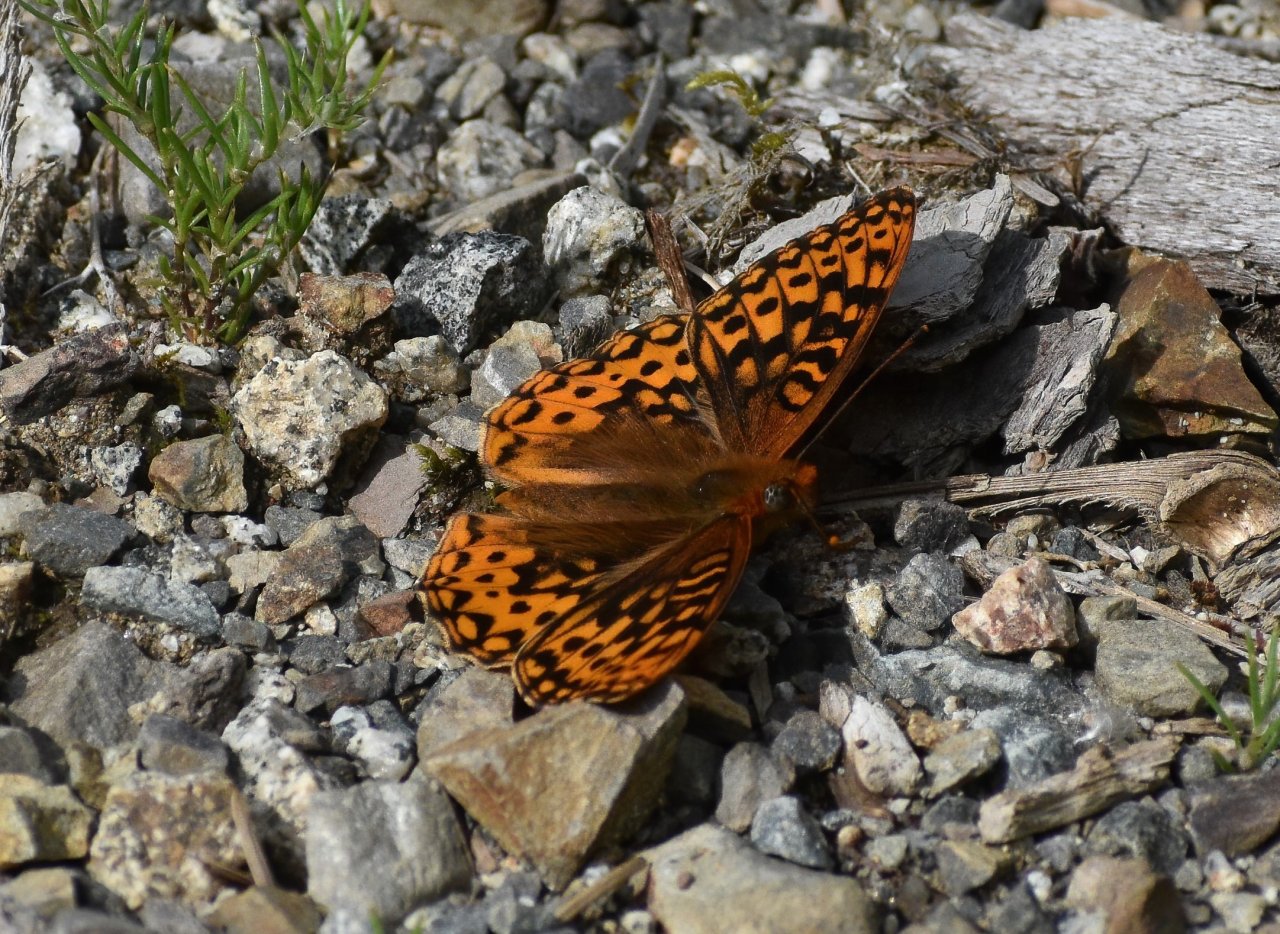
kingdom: Animalia
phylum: Arthropoda
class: Insecta
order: Lepidoptera
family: Nymphalidae
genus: Speyeria
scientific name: Speyeria hydaspe
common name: Hydaspe Fritillary
